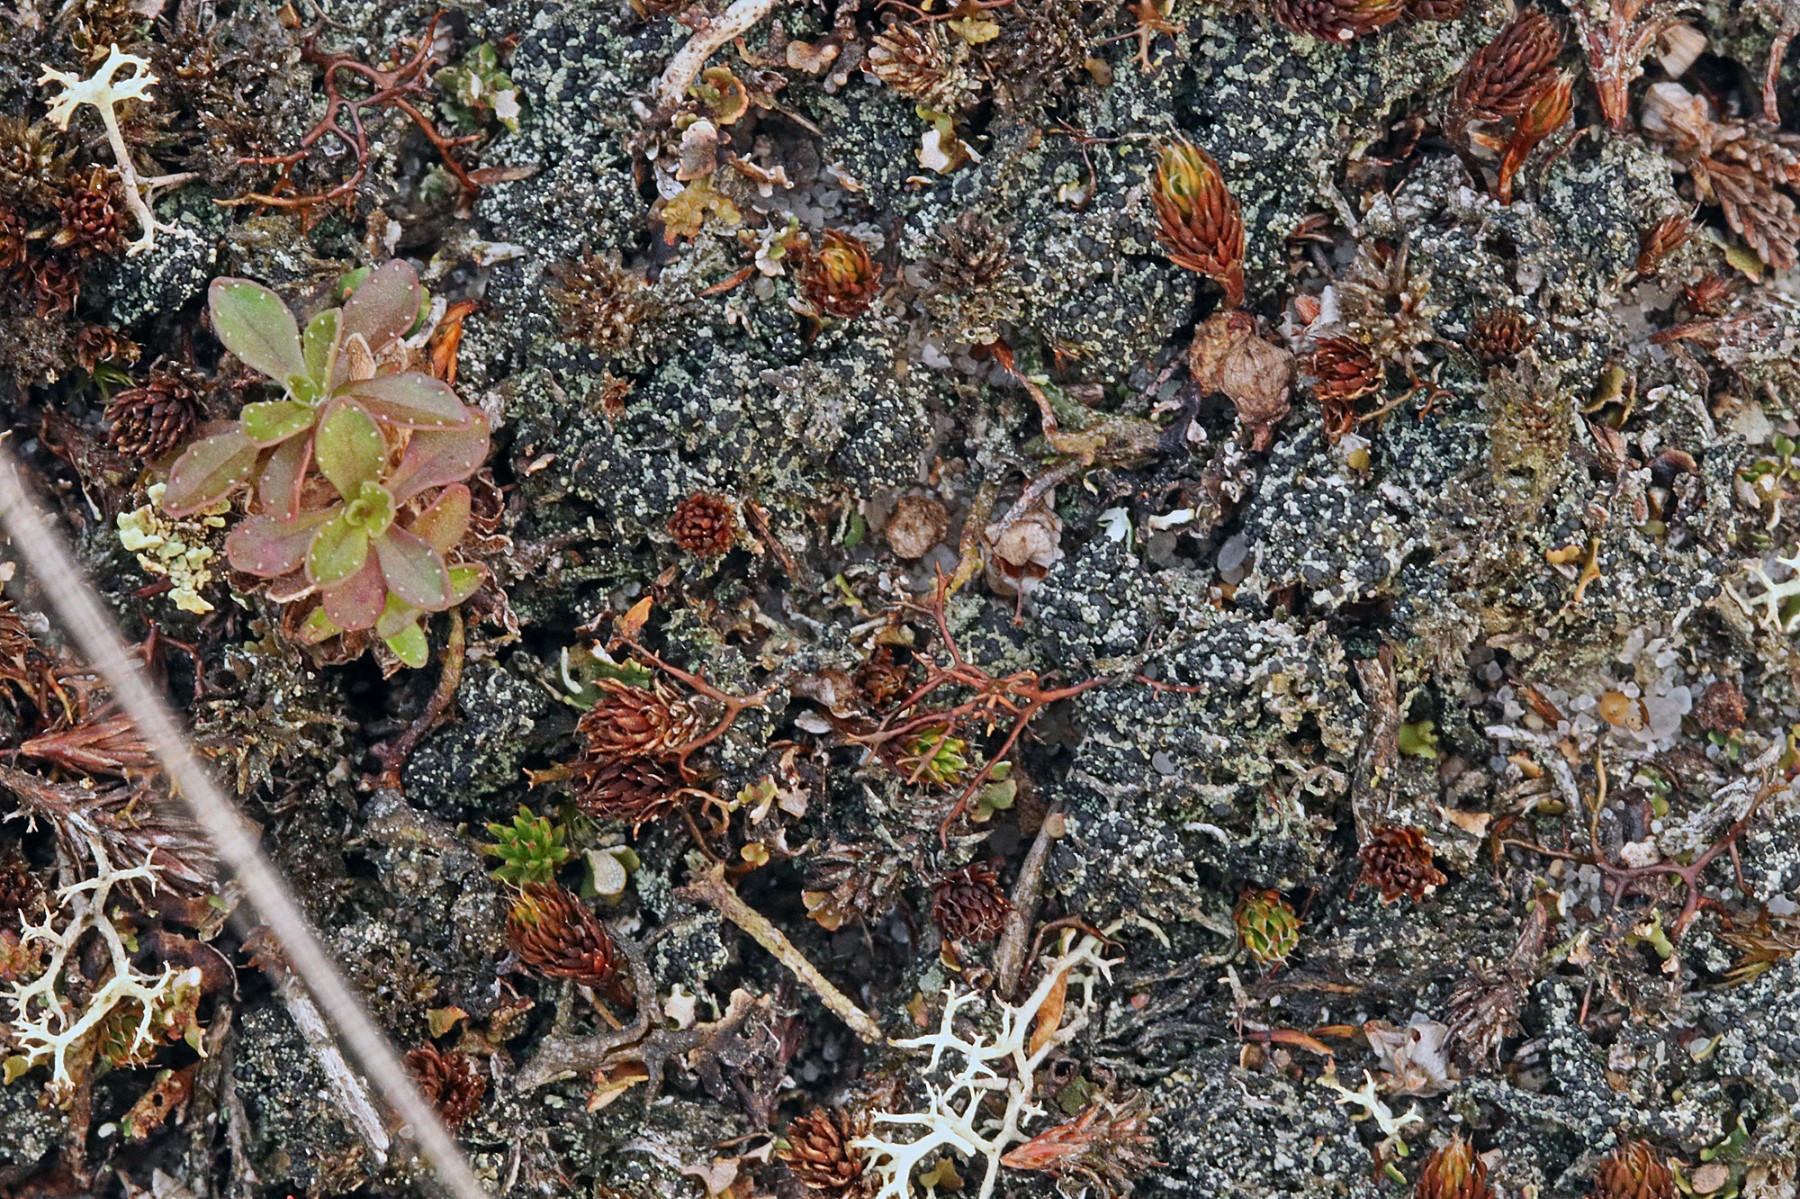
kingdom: Fungi
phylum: Ascomycota
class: Lecanoromycetes
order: Lecanorales
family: Byssolomataceae
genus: Micarea
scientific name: Micarea lignaria
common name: tørve-knaplav
